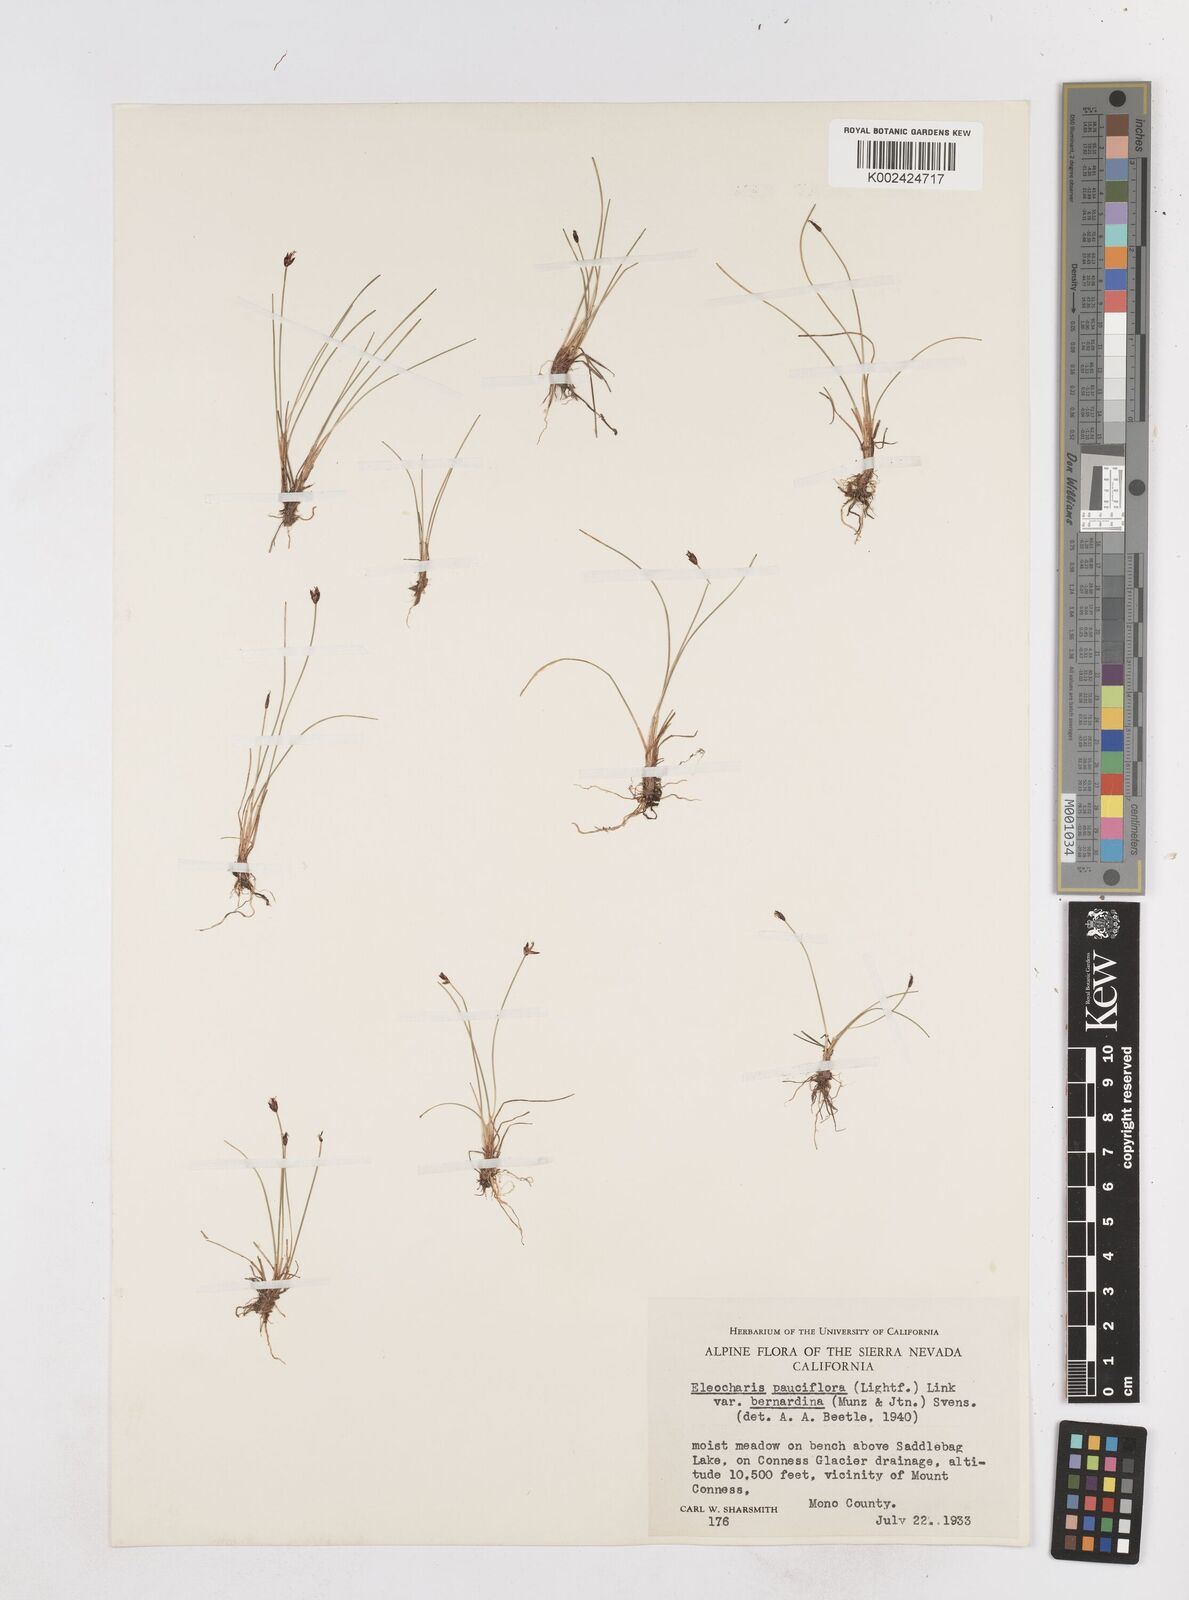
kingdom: Plantae
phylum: Tracheophyta
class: Liliopsida
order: Poales
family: Cyperaceae
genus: Eleocharis
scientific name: Eleocharis bernardina
